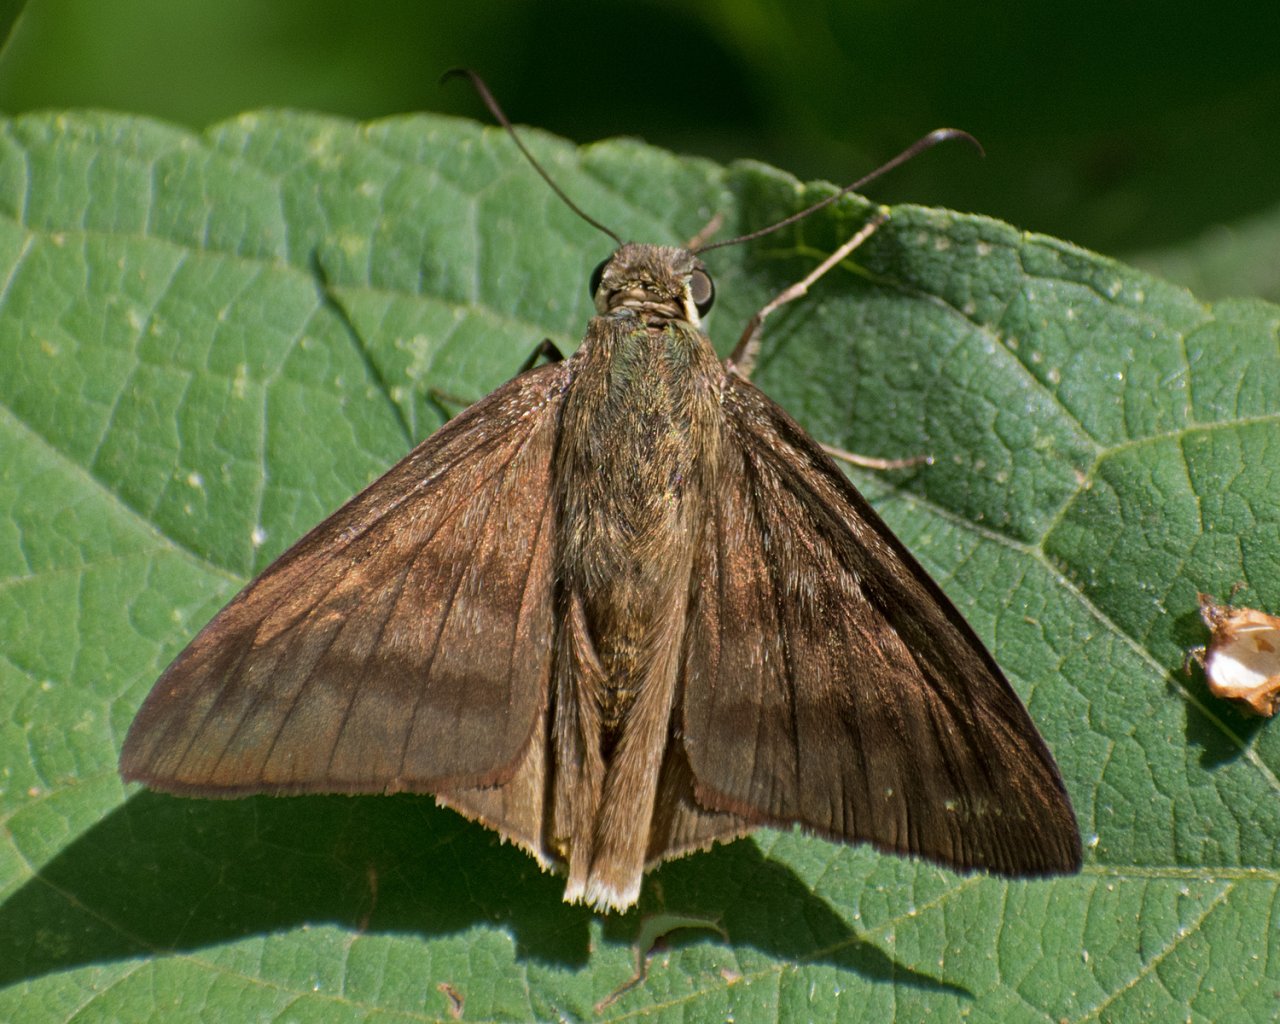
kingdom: Animalia
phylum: Arthropoda
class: Insecta
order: Lepidoptera
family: Hesperiidae
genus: Astraptes
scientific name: Astraptes anaphus
